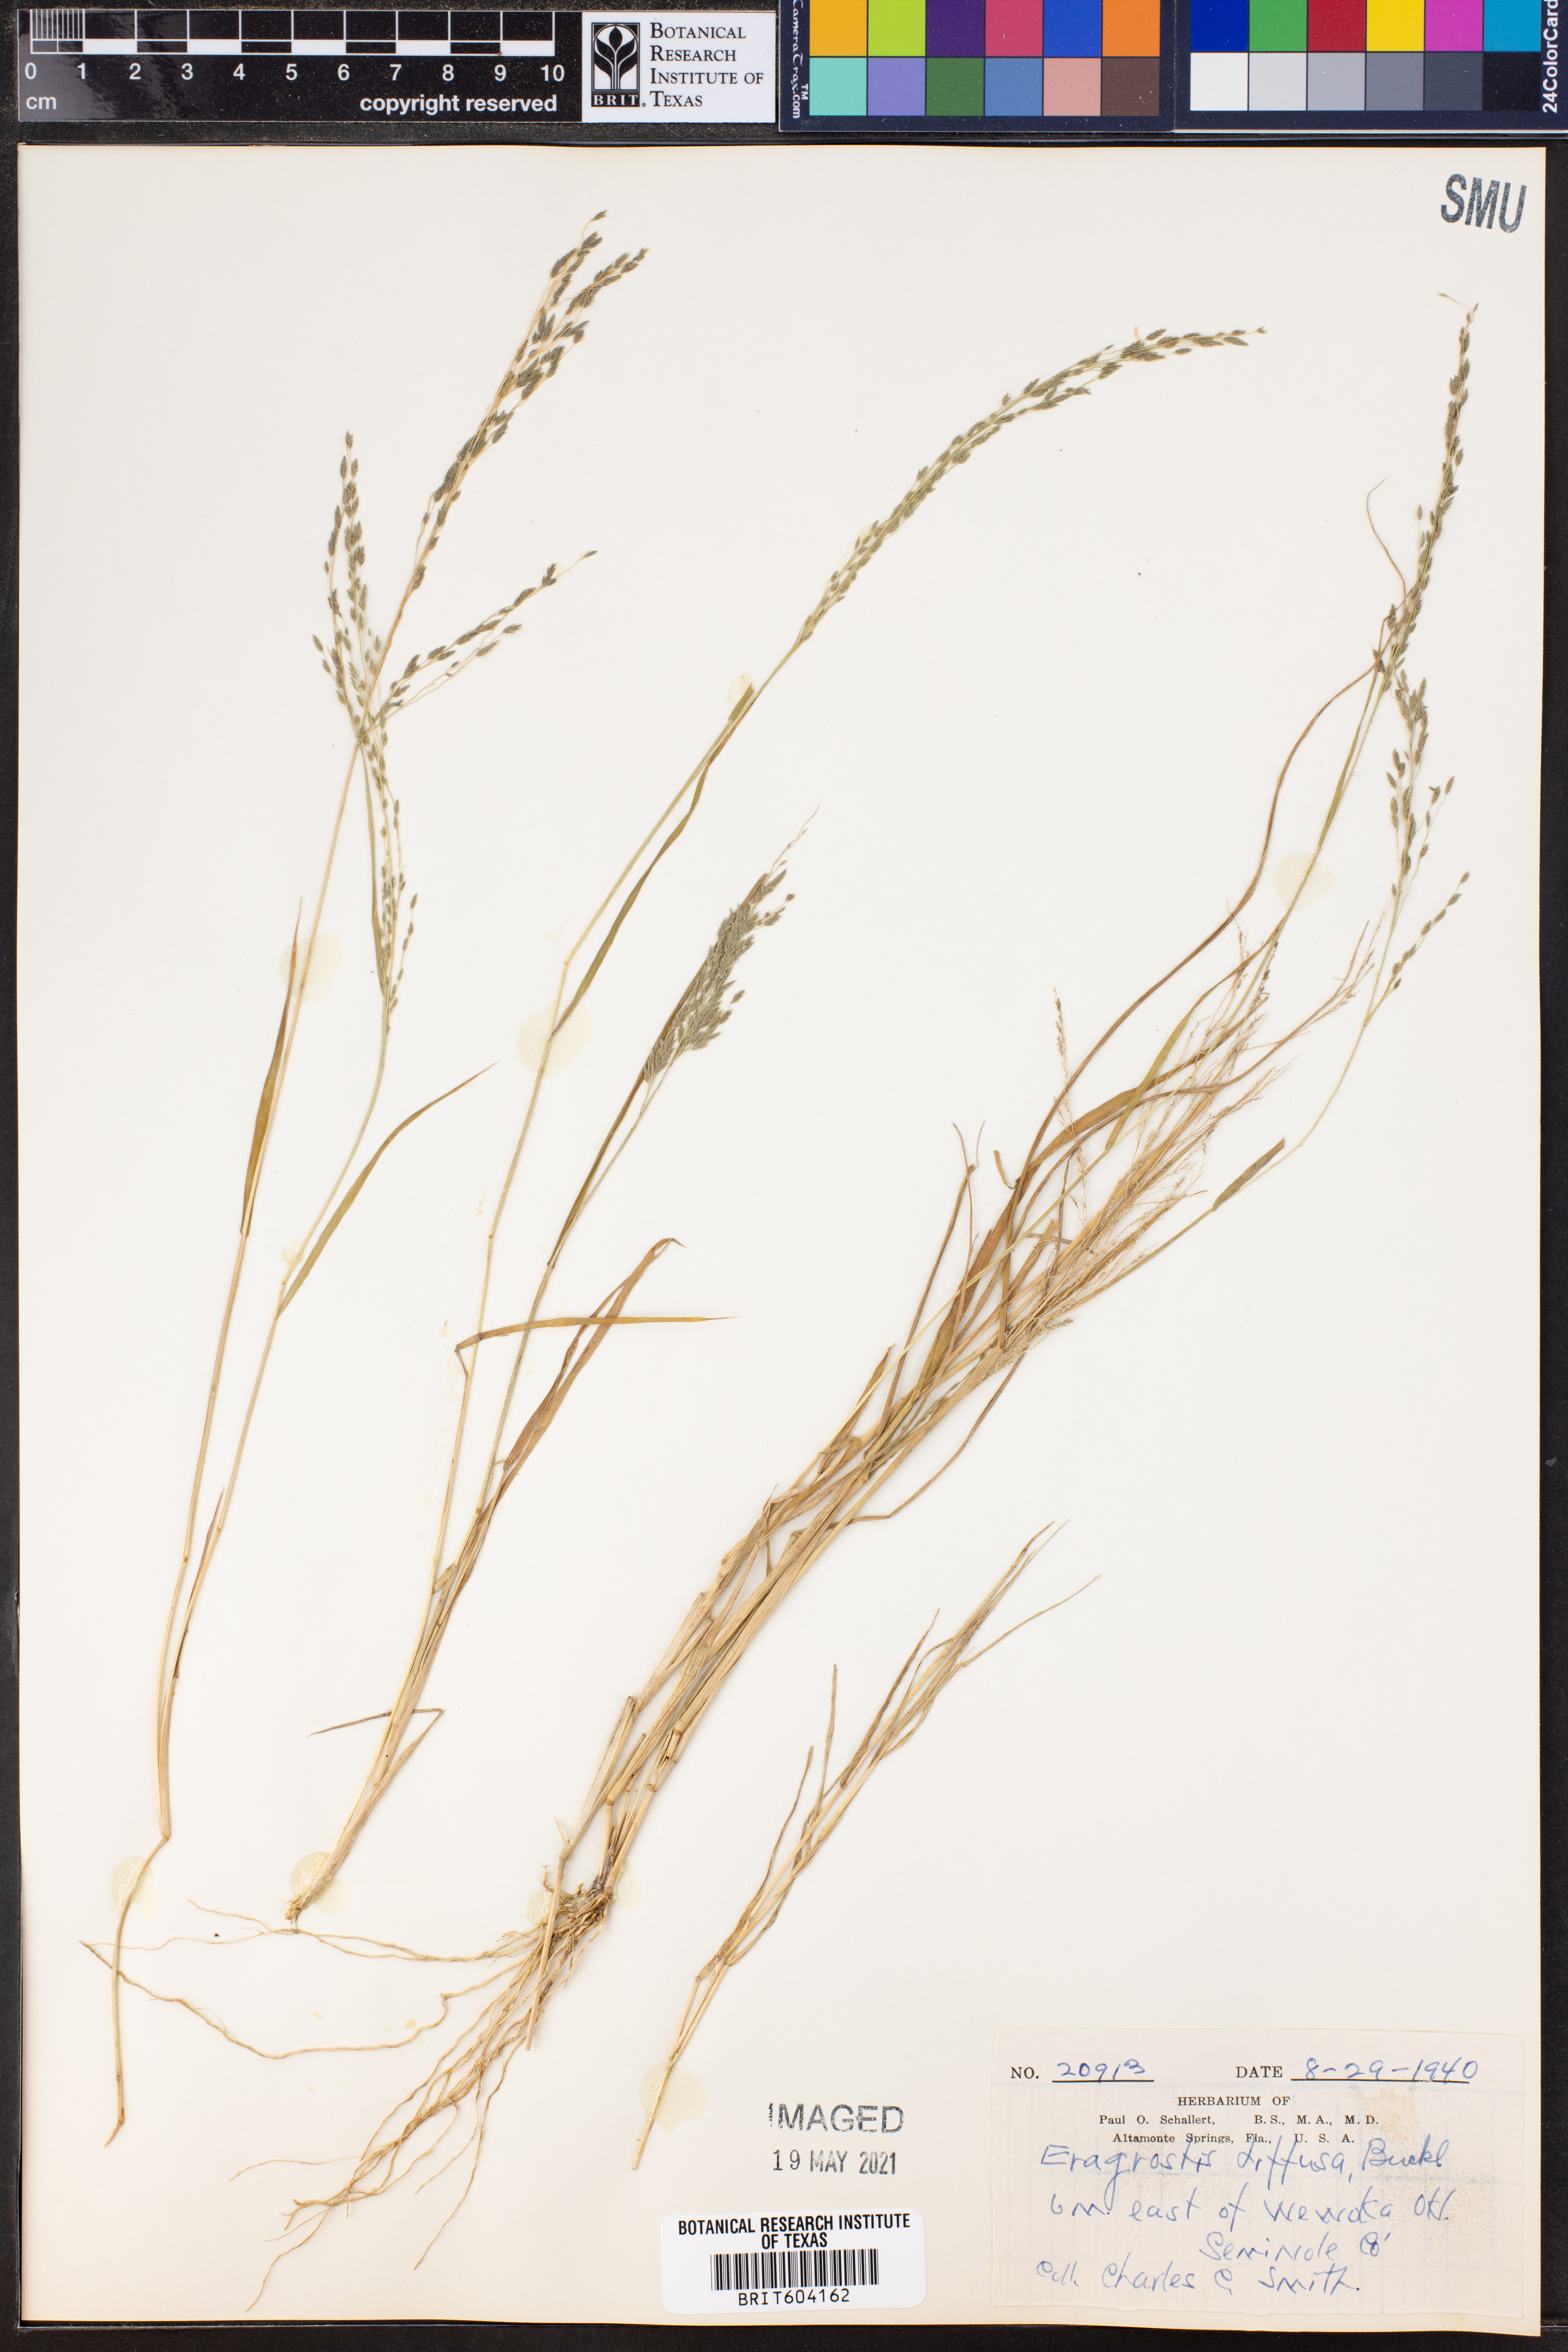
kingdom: Plantae
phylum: Tracheophyta
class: Liliopsida
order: Poales
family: Poaceae
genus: Eragrostis
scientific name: Eragrostis pectinacea
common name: Tufted lovegrass
